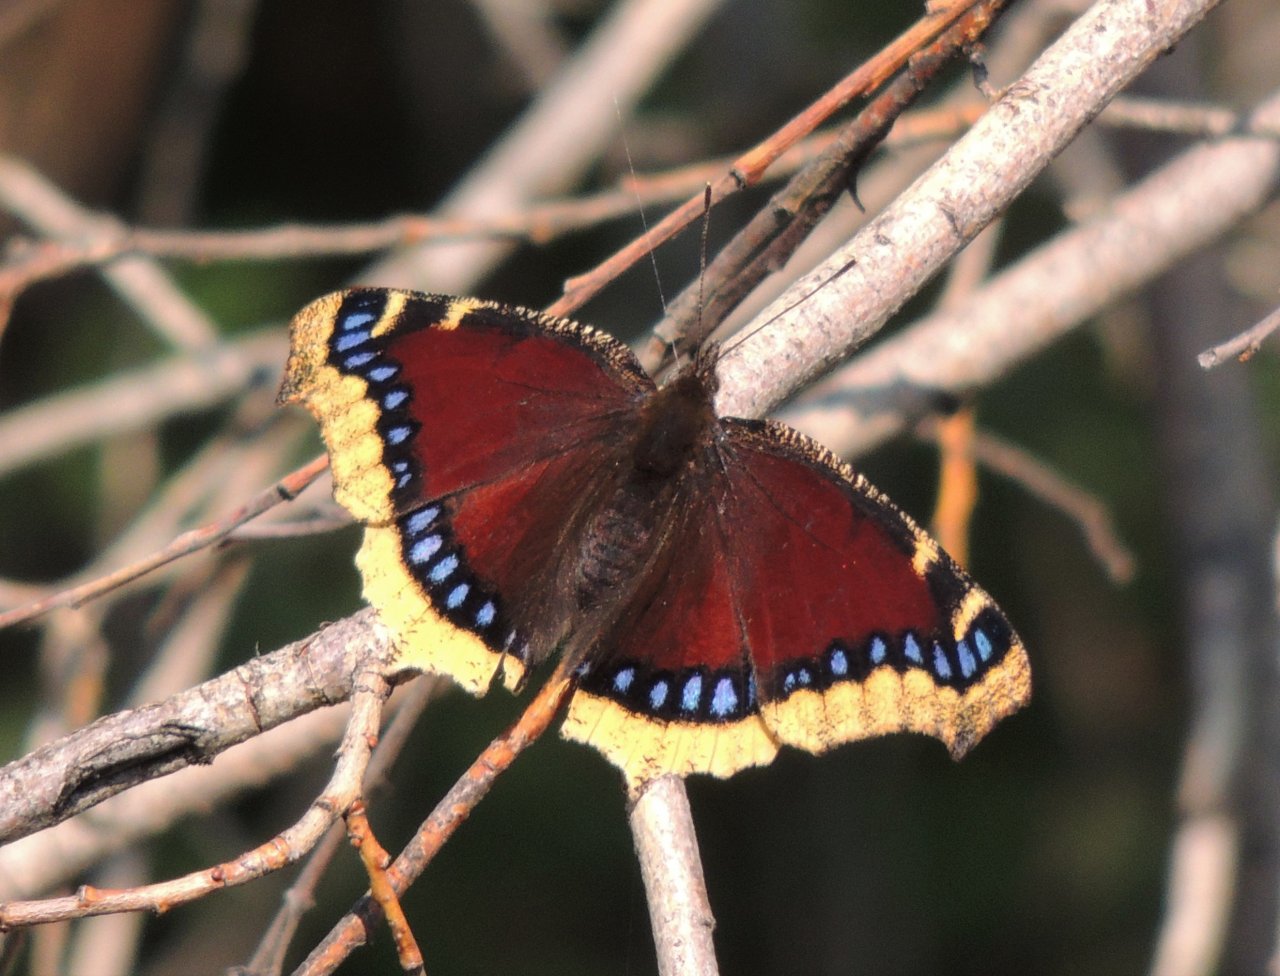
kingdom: Animalia
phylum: Arthropoda
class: Insecta
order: Lepidoptera
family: Nymphalidae
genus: Nymphalis
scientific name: Nymphalis antiopa
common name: Mourning Cloak
